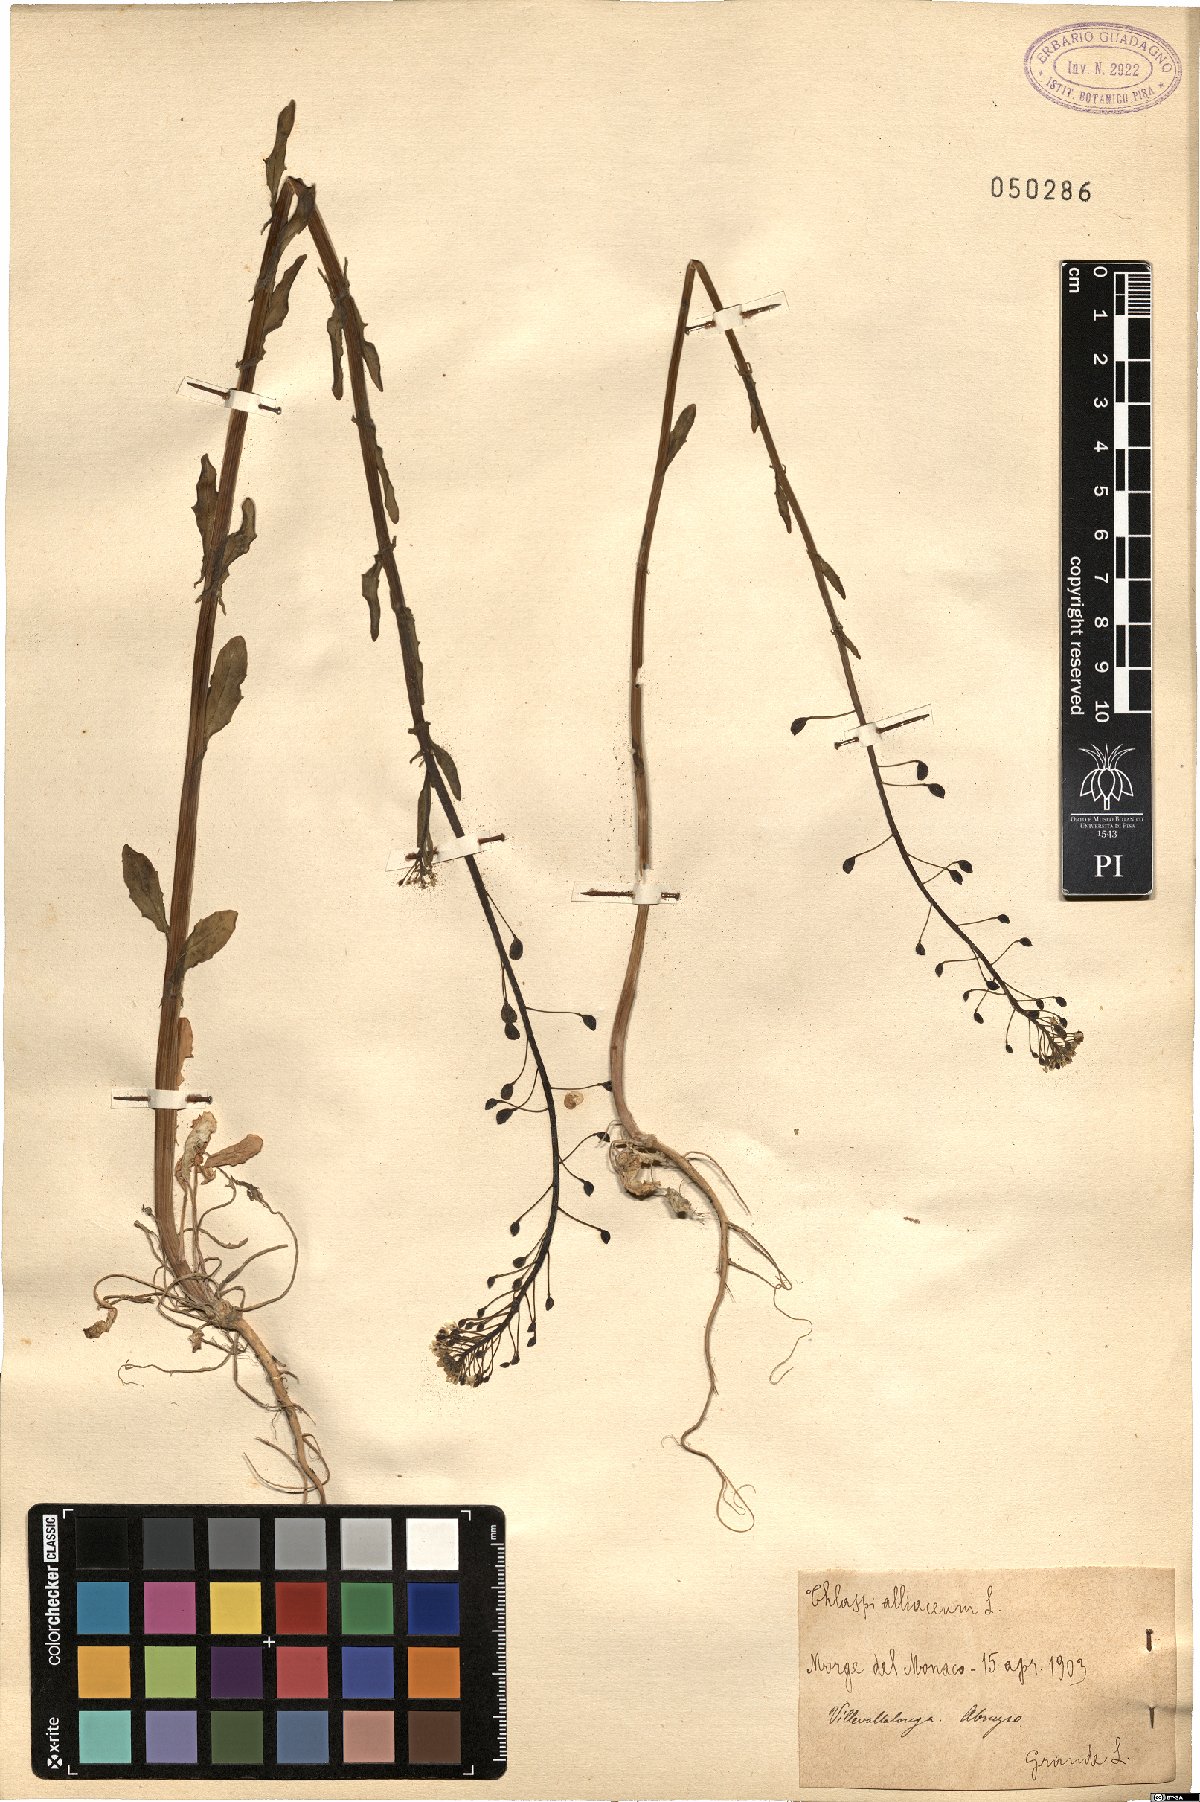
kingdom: Plantae
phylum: Tracheophyta
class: Magnoliopsida
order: Brassicales
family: Brassicaceae
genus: Mummenhoffia
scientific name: Mummenhoffia alliacea
